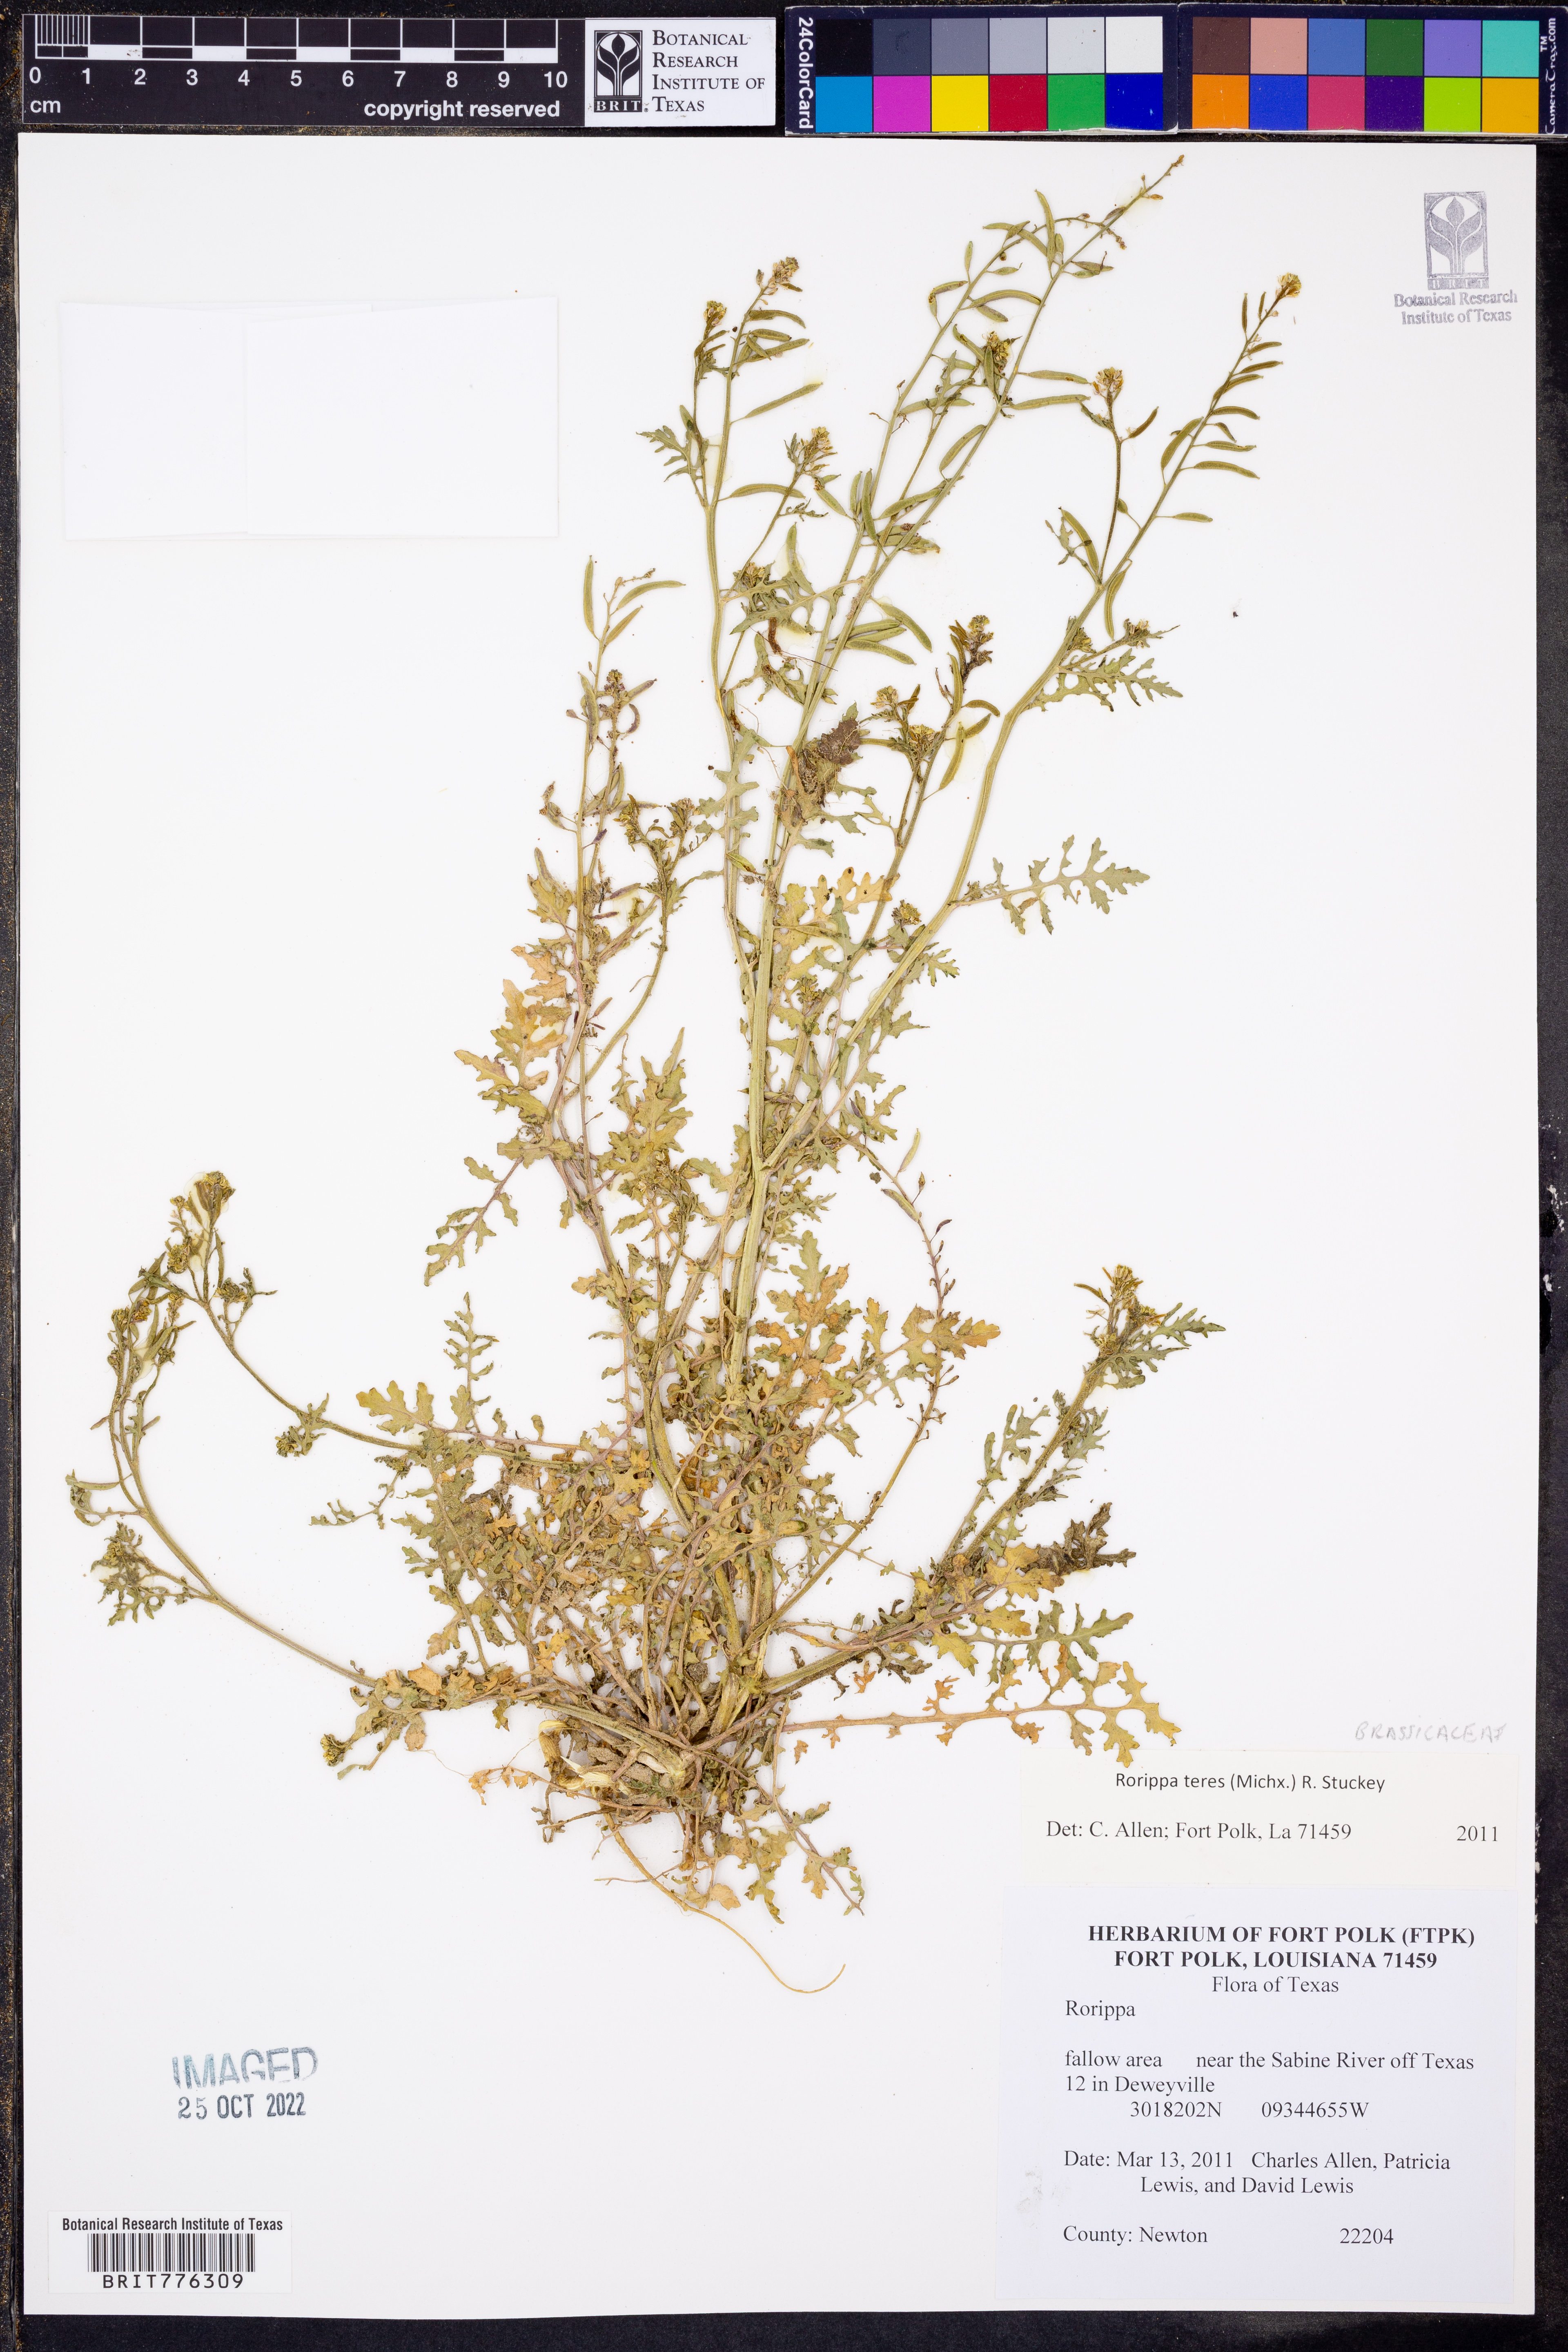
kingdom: Plantae
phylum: Tracheophyta
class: Magnoliopsida
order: Brassicales
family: Brassicaceae
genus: Rorippa
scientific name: Rorippa teres
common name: Southern marsh yellowcress
